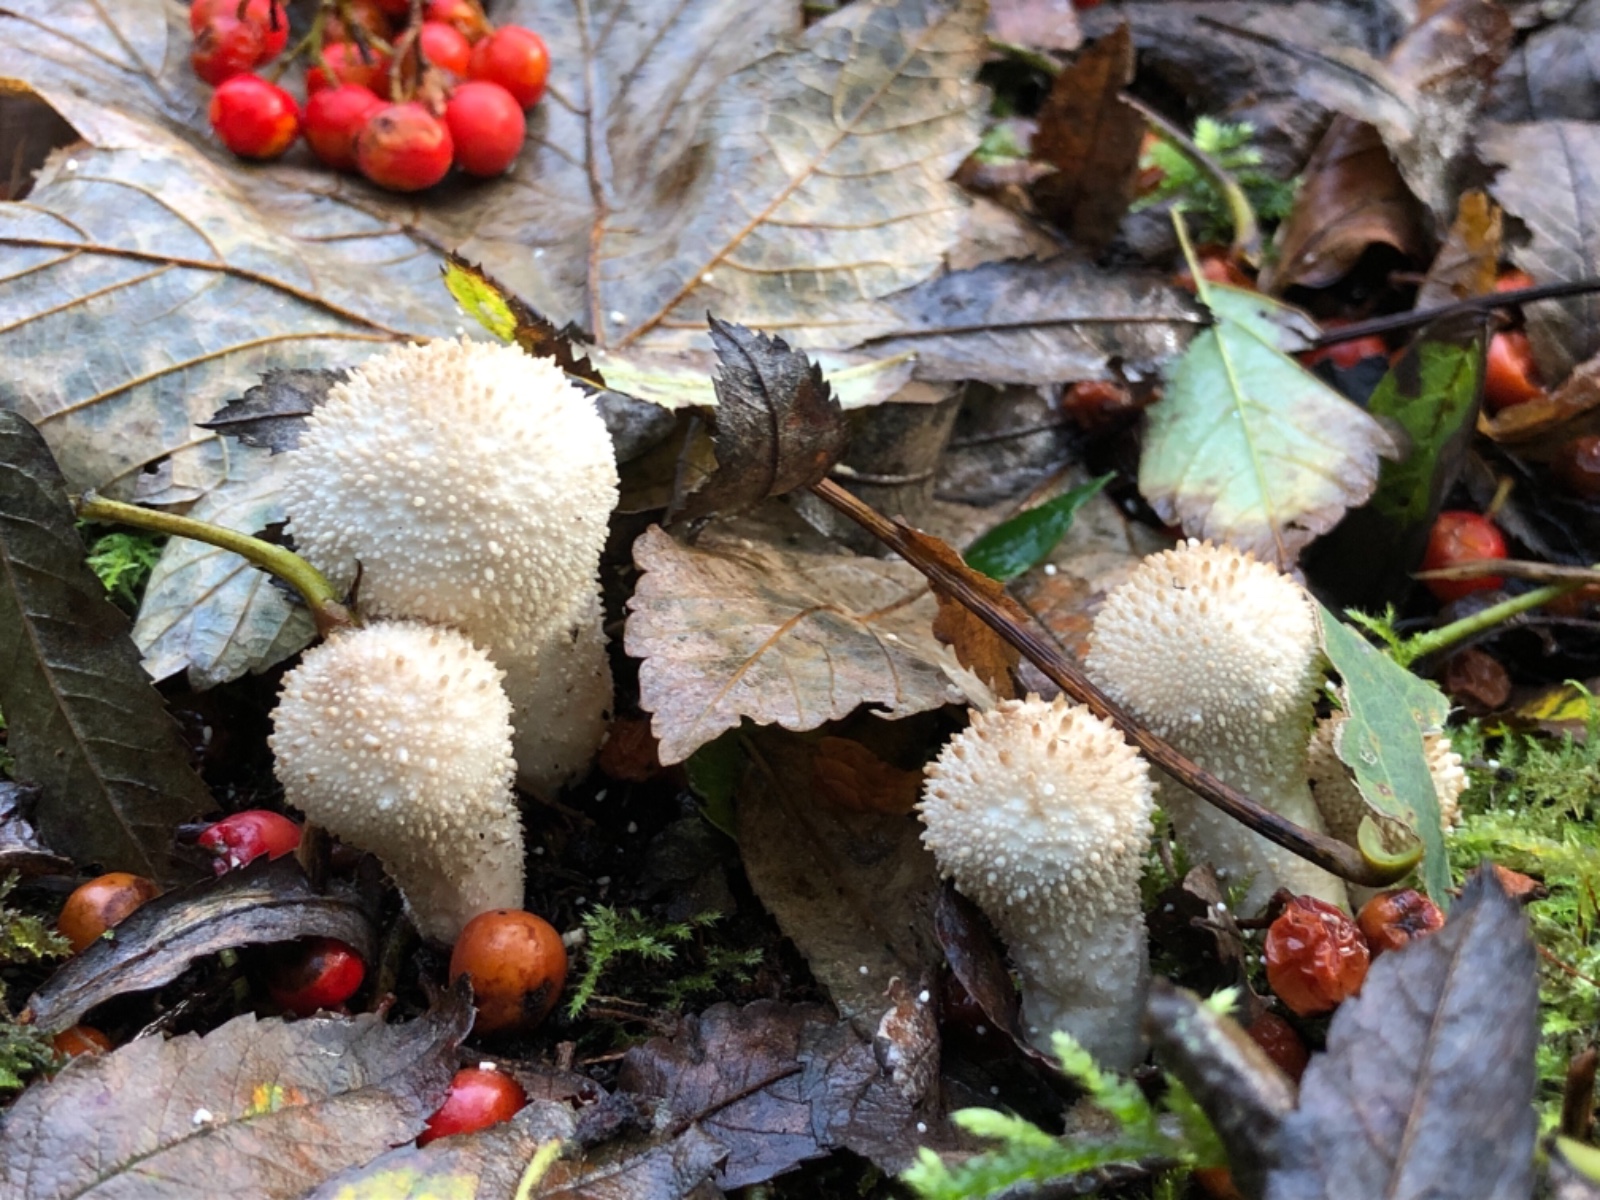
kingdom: Fungi
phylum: Basidiomycota
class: Agaricomycetes
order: Agaricales
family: Lycoperdaceae
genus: Lycoperdon
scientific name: Lycoperdon perlatum
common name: krystal-støvbold
